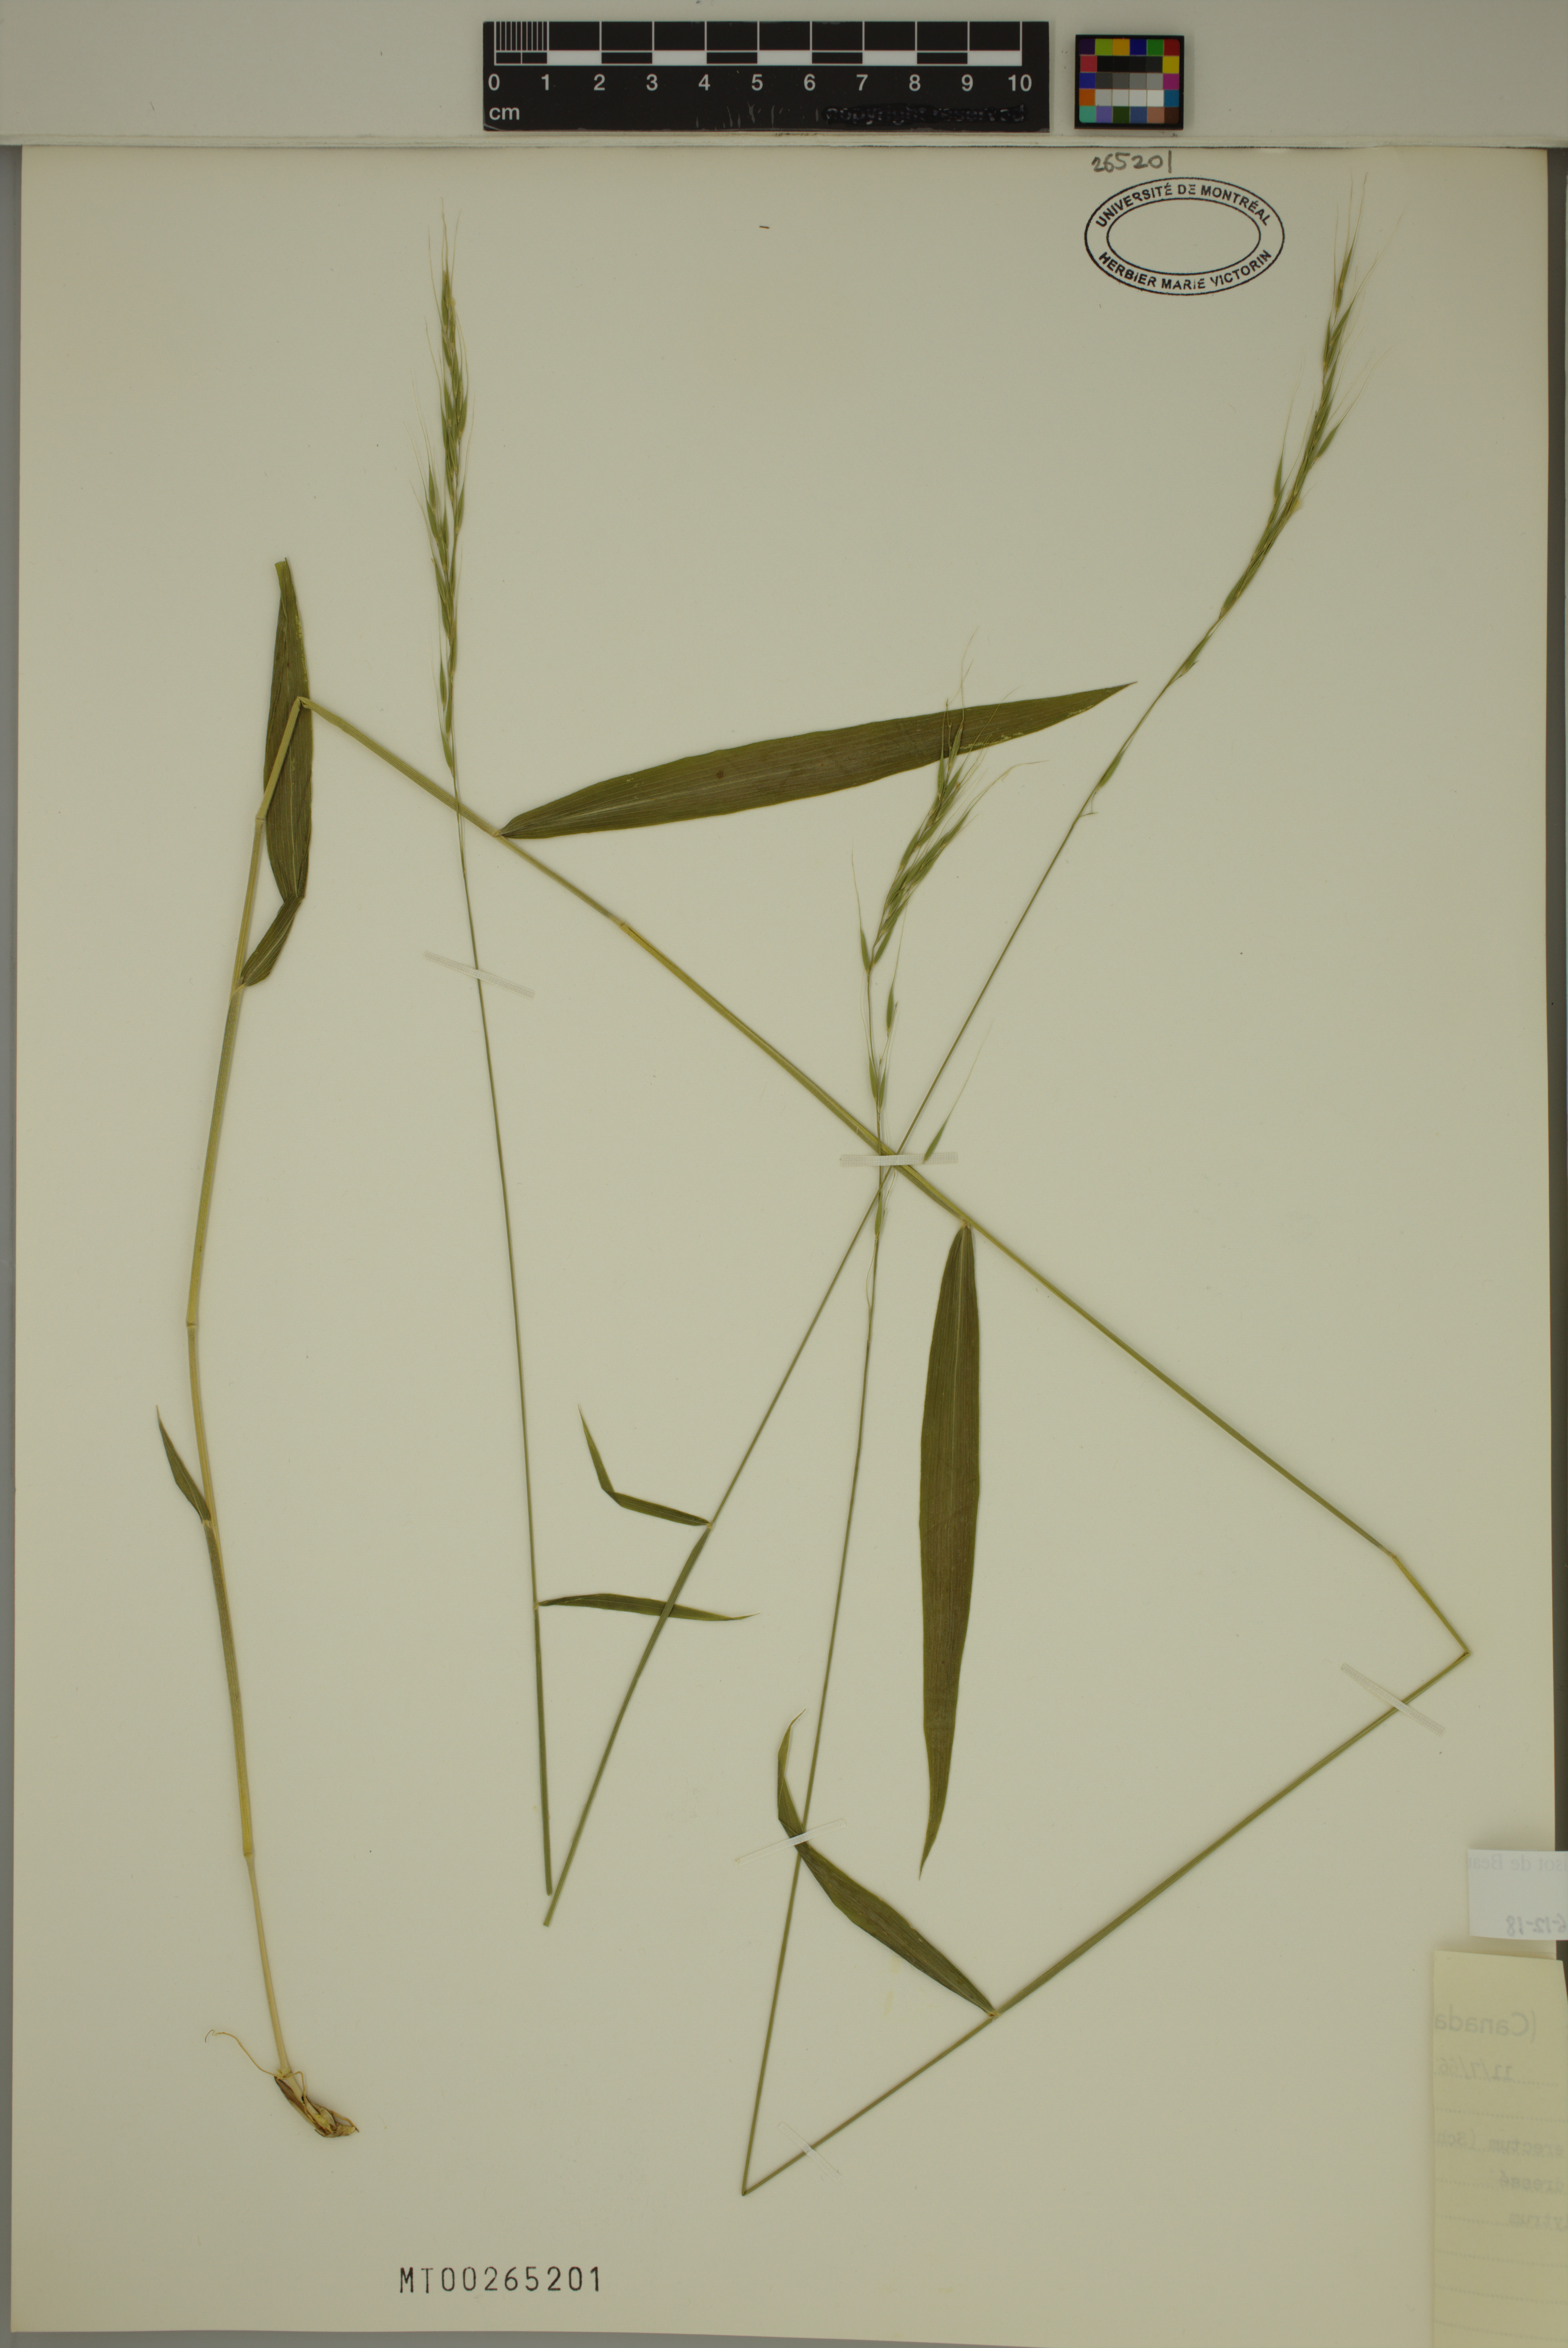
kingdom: Plantae
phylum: Tracheophyta
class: Liliopsida
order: Poales
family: Poaceae
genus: Brachyelytrum
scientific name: Brachyelytrum aristosum
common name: Northern shorthusk
